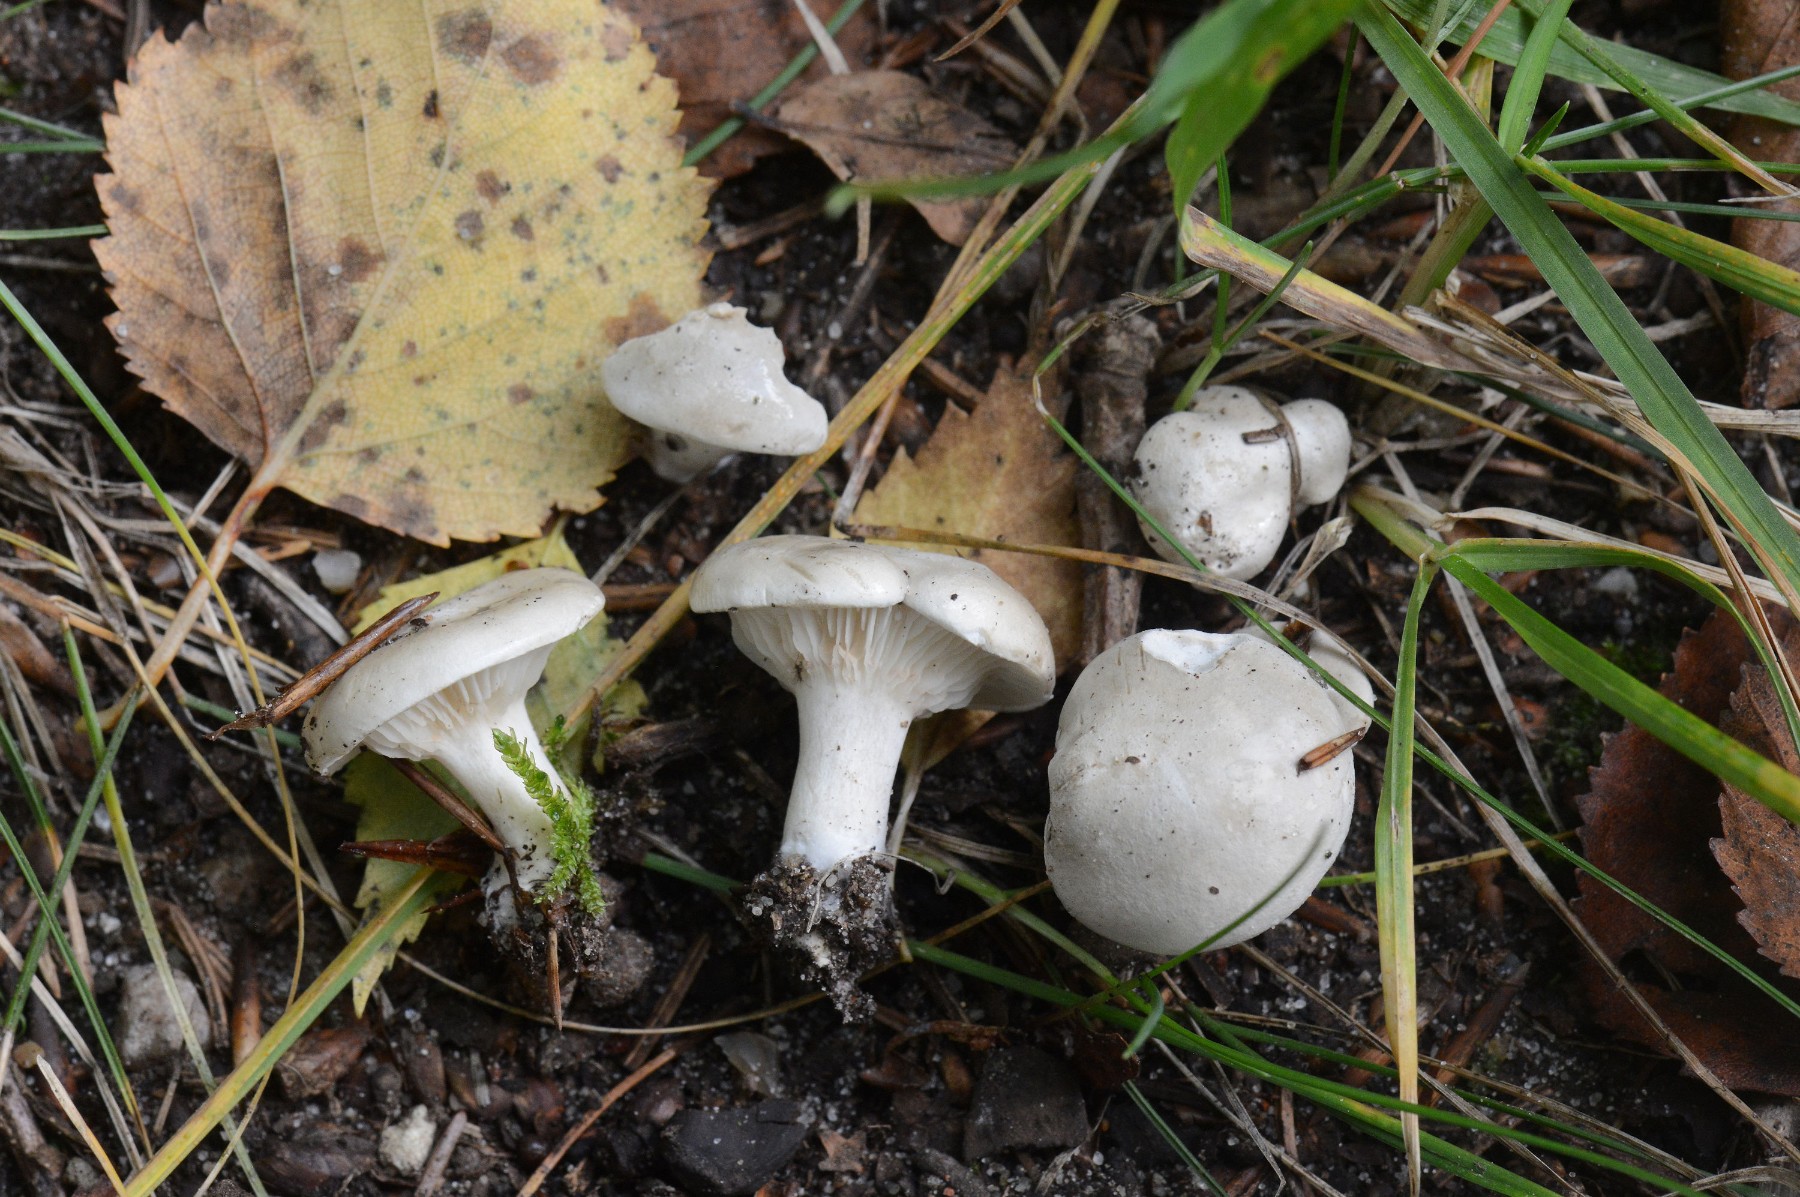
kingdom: Fungi
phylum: Basidiomycota
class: Agaricomycetes
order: Agaricales
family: Entolomataceae
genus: Clitopilus
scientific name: Clitopilus prunulus
